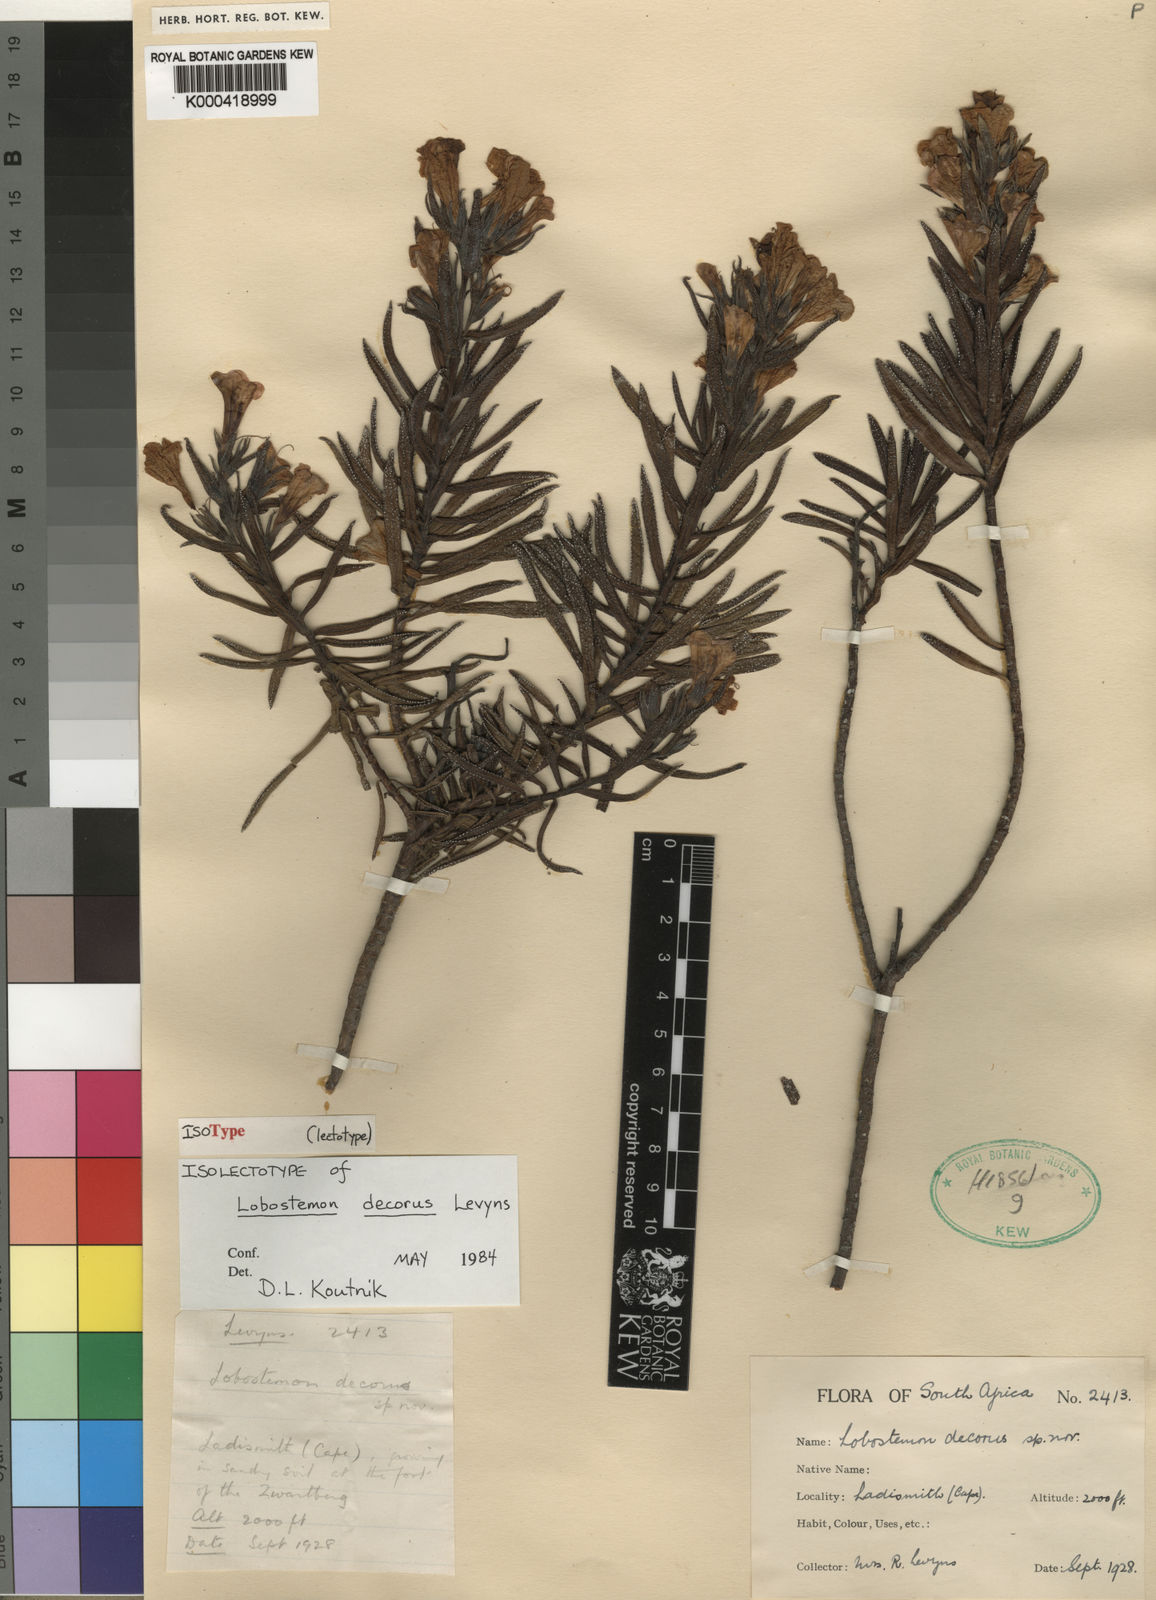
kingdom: Plantae
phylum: Tracheophyta
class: Magnoliopsida
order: Boraginales
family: Boraginaceae
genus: Lobostemon
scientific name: Lobostemon decorus
